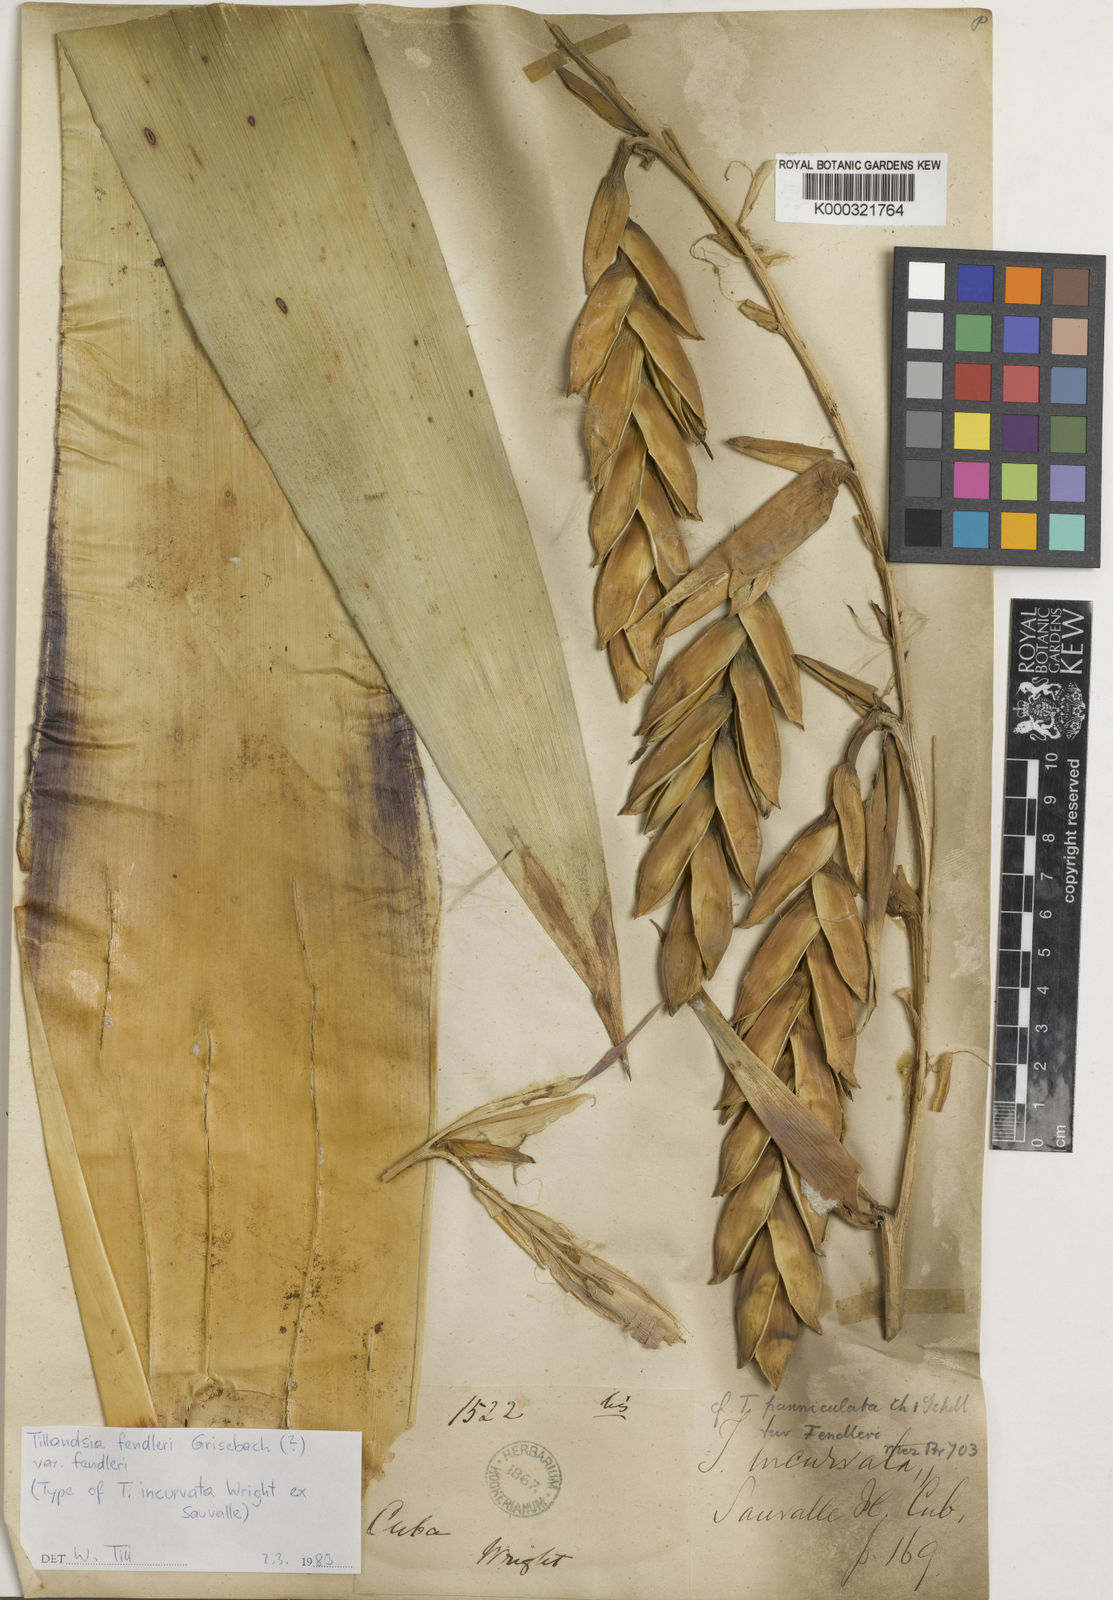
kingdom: Plantae
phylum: Tracheophyta
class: Liliopsida
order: Poales
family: Bromeliaceae
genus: Tillandsia
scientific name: Tillandsia fendleri
